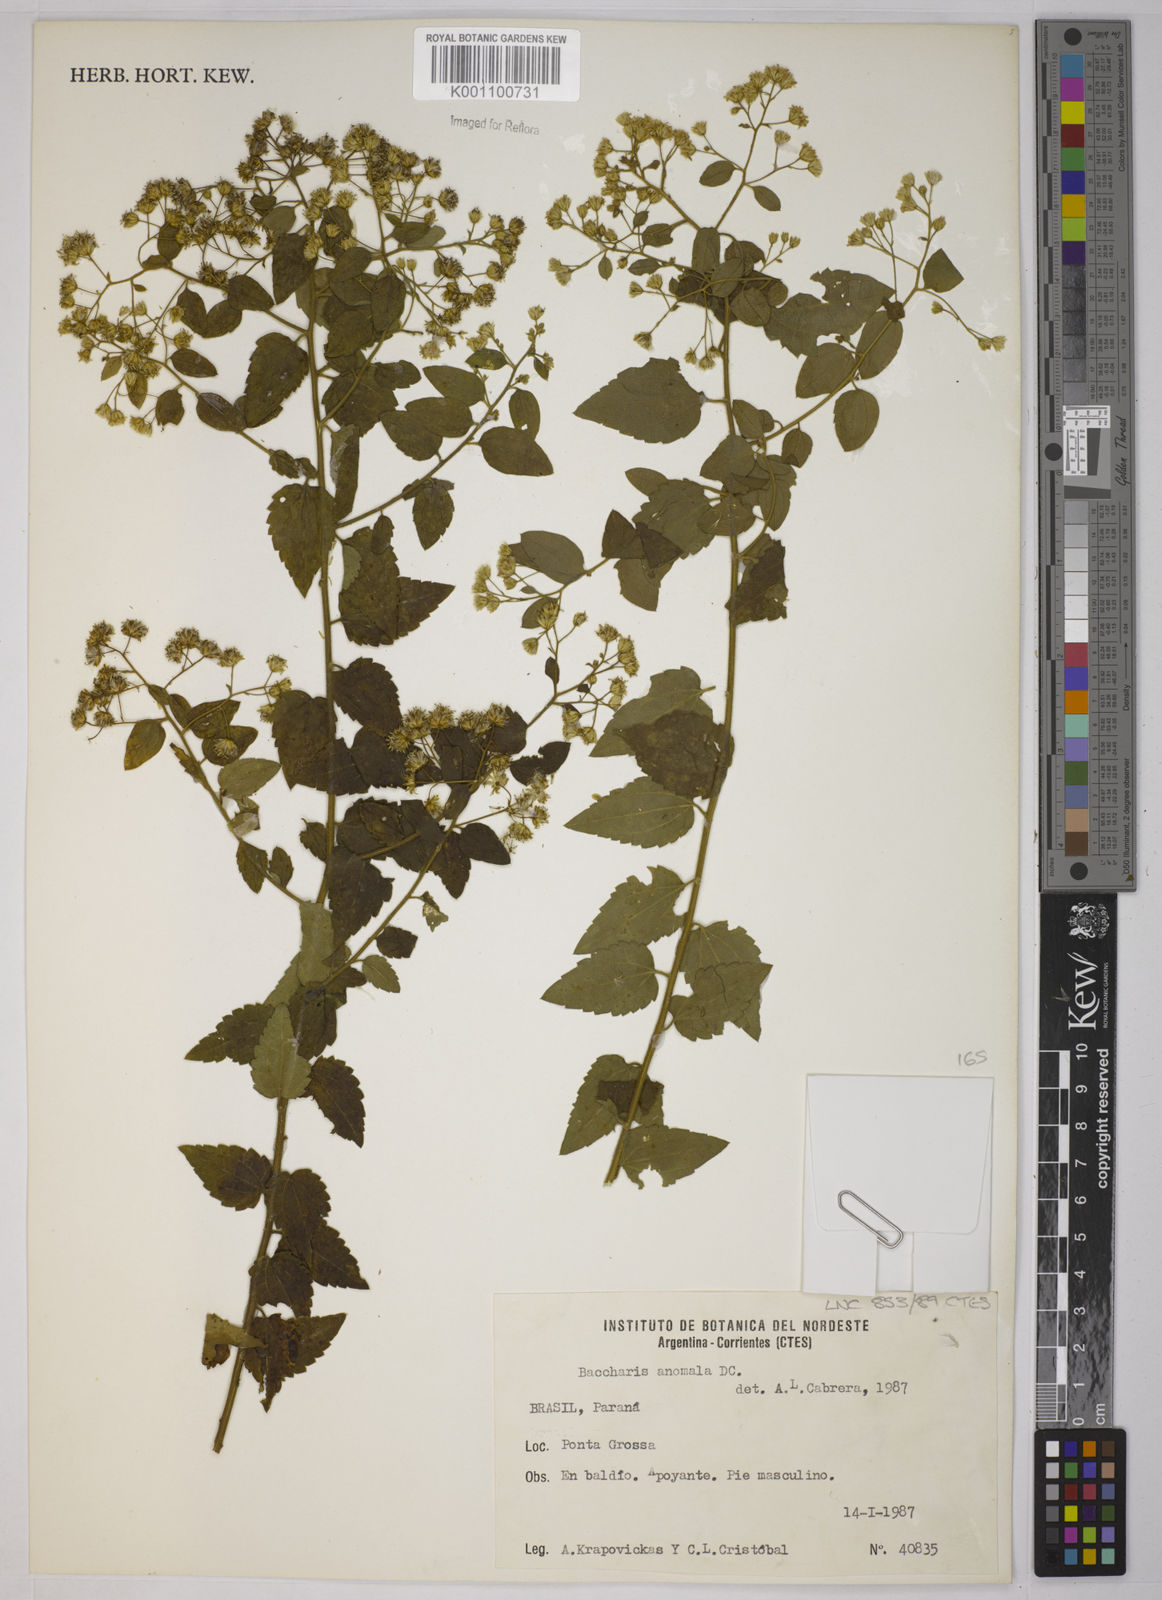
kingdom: Plantae
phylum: Tracheophyta
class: Magnoliopsida
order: Asterales
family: Asteraceae
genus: Baccharis
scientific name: Baccharis anomala
